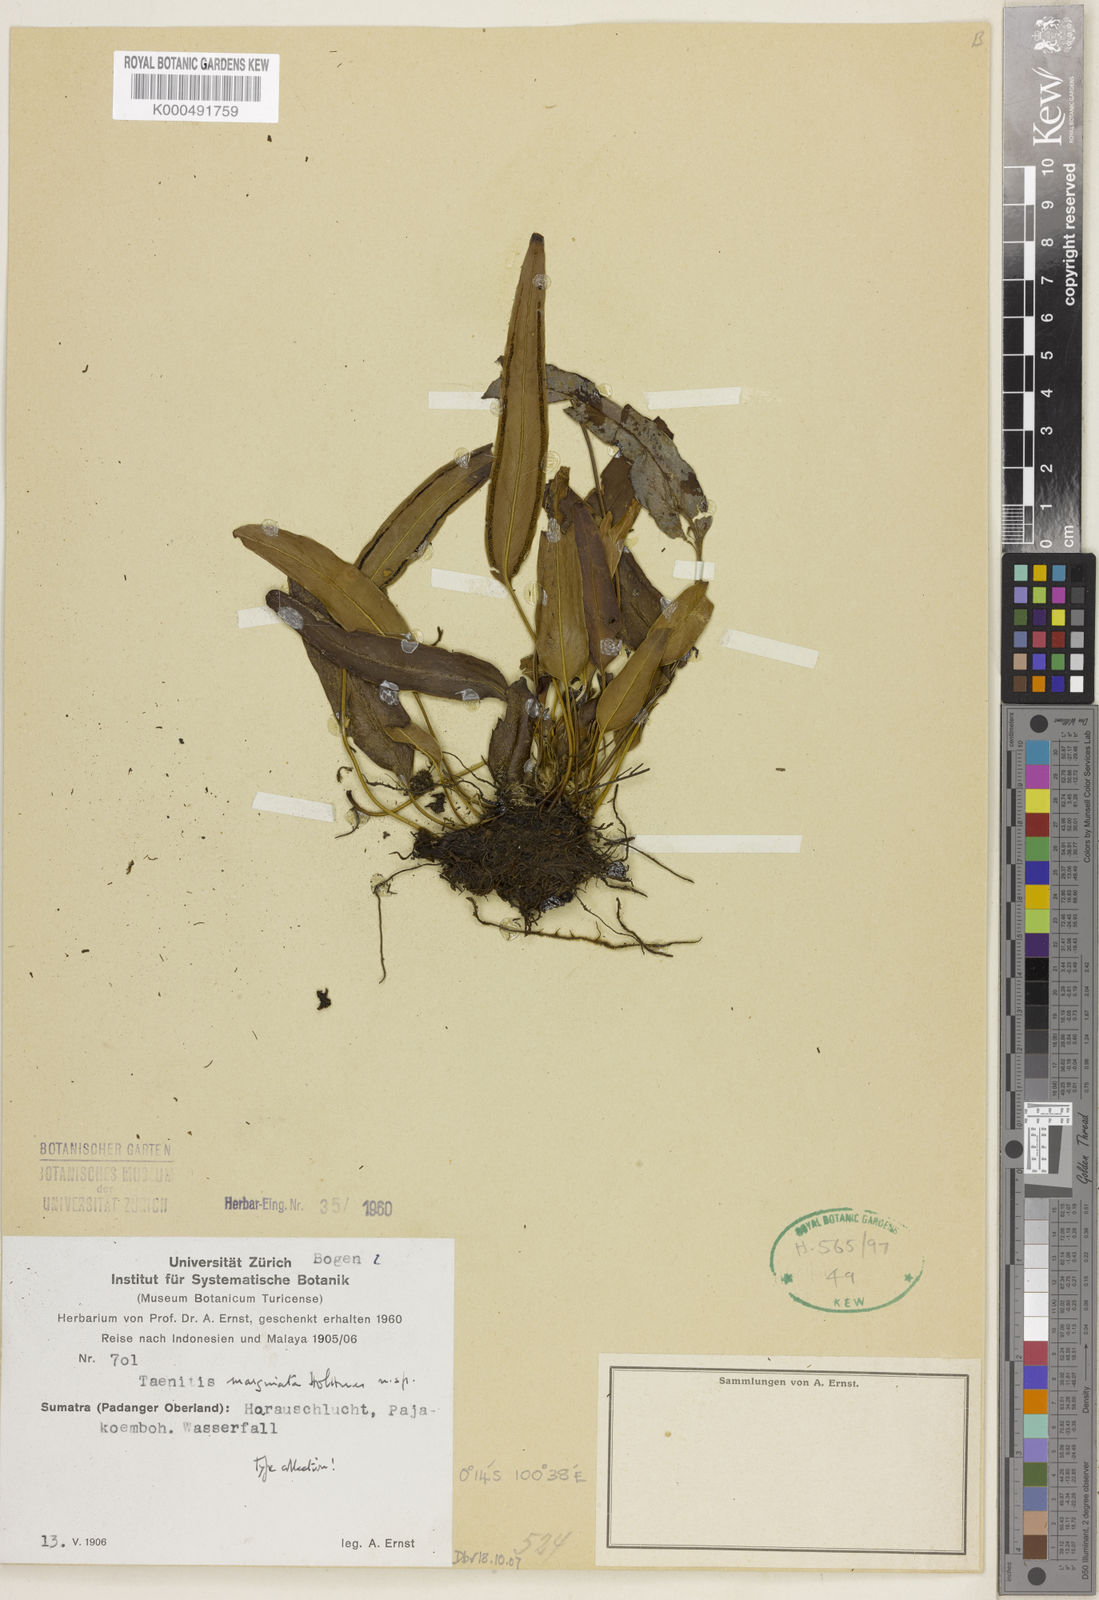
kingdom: Plantae
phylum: Tracheophyta
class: Polypodiopsida
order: Polypodiales
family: Pteridaceae
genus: Taenitis
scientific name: Taenitis marginata
